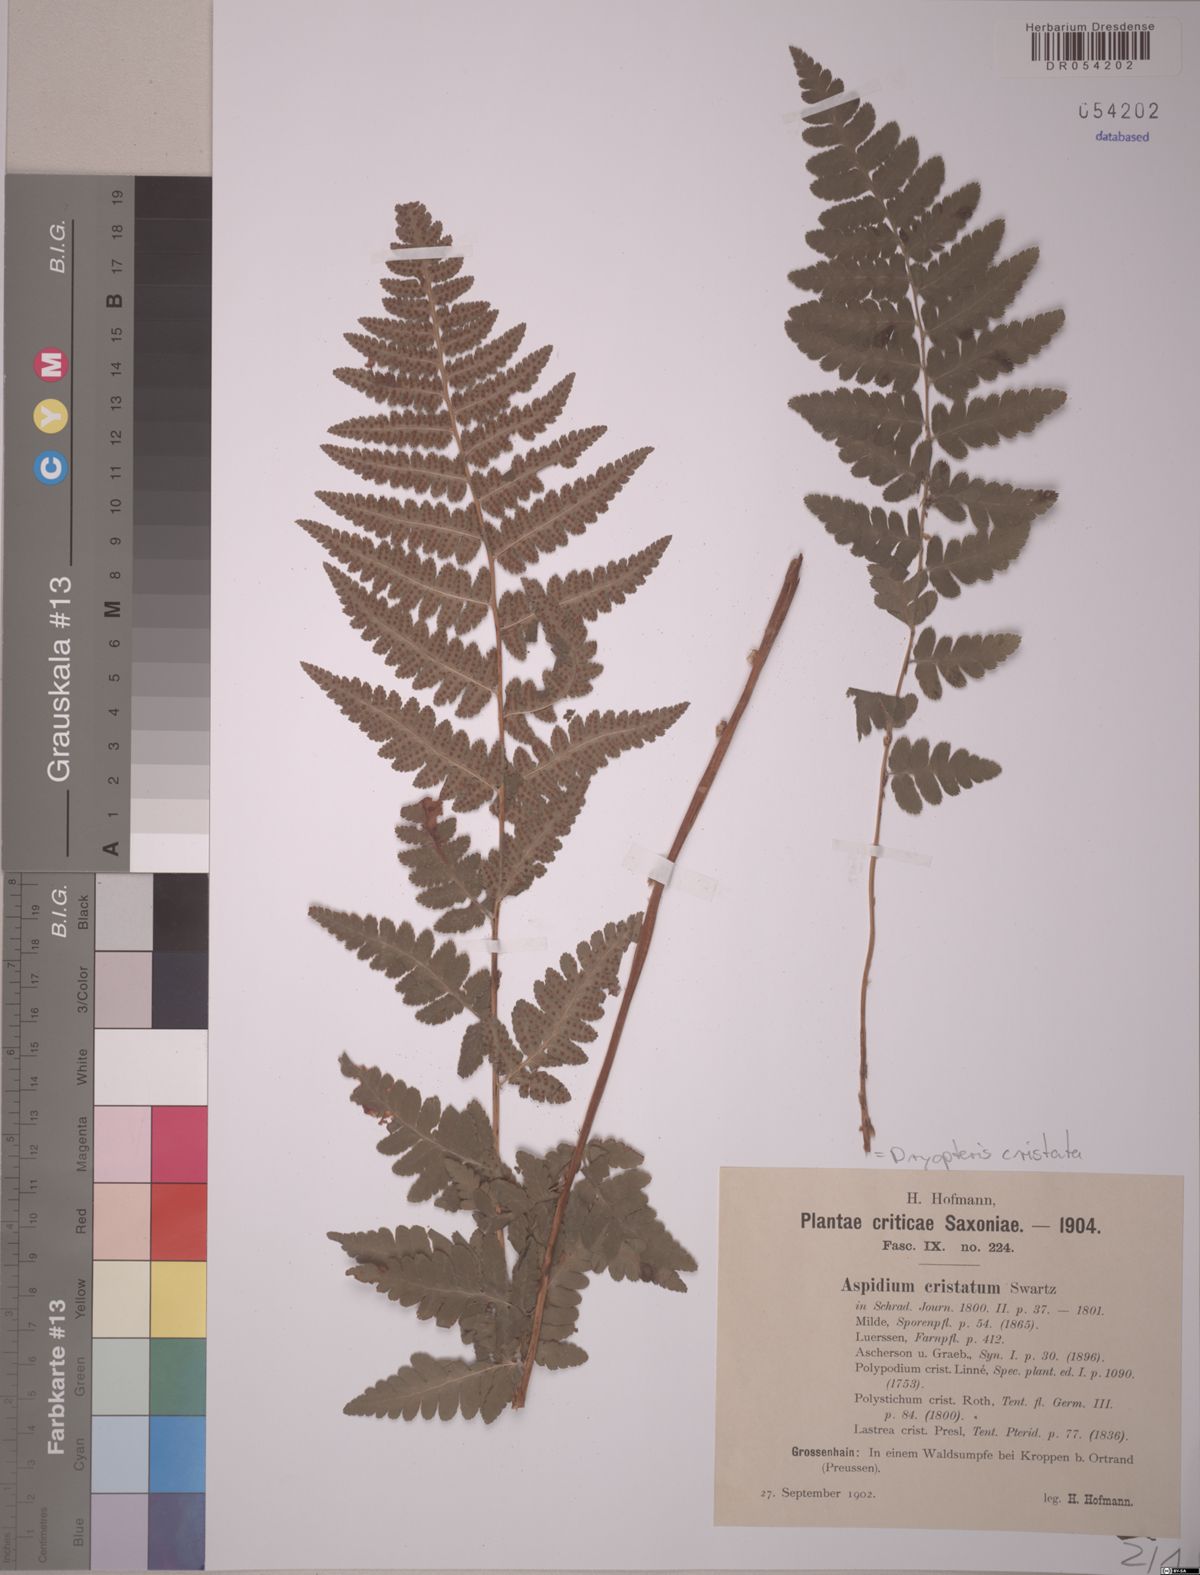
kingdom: Plantae
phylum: Tracheophyta
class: Polypodiopsida
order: Polypodiales
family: Dryopteridaceae
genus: Dryopteris
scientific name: Dryopteris cristata
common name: Crested wood fern
